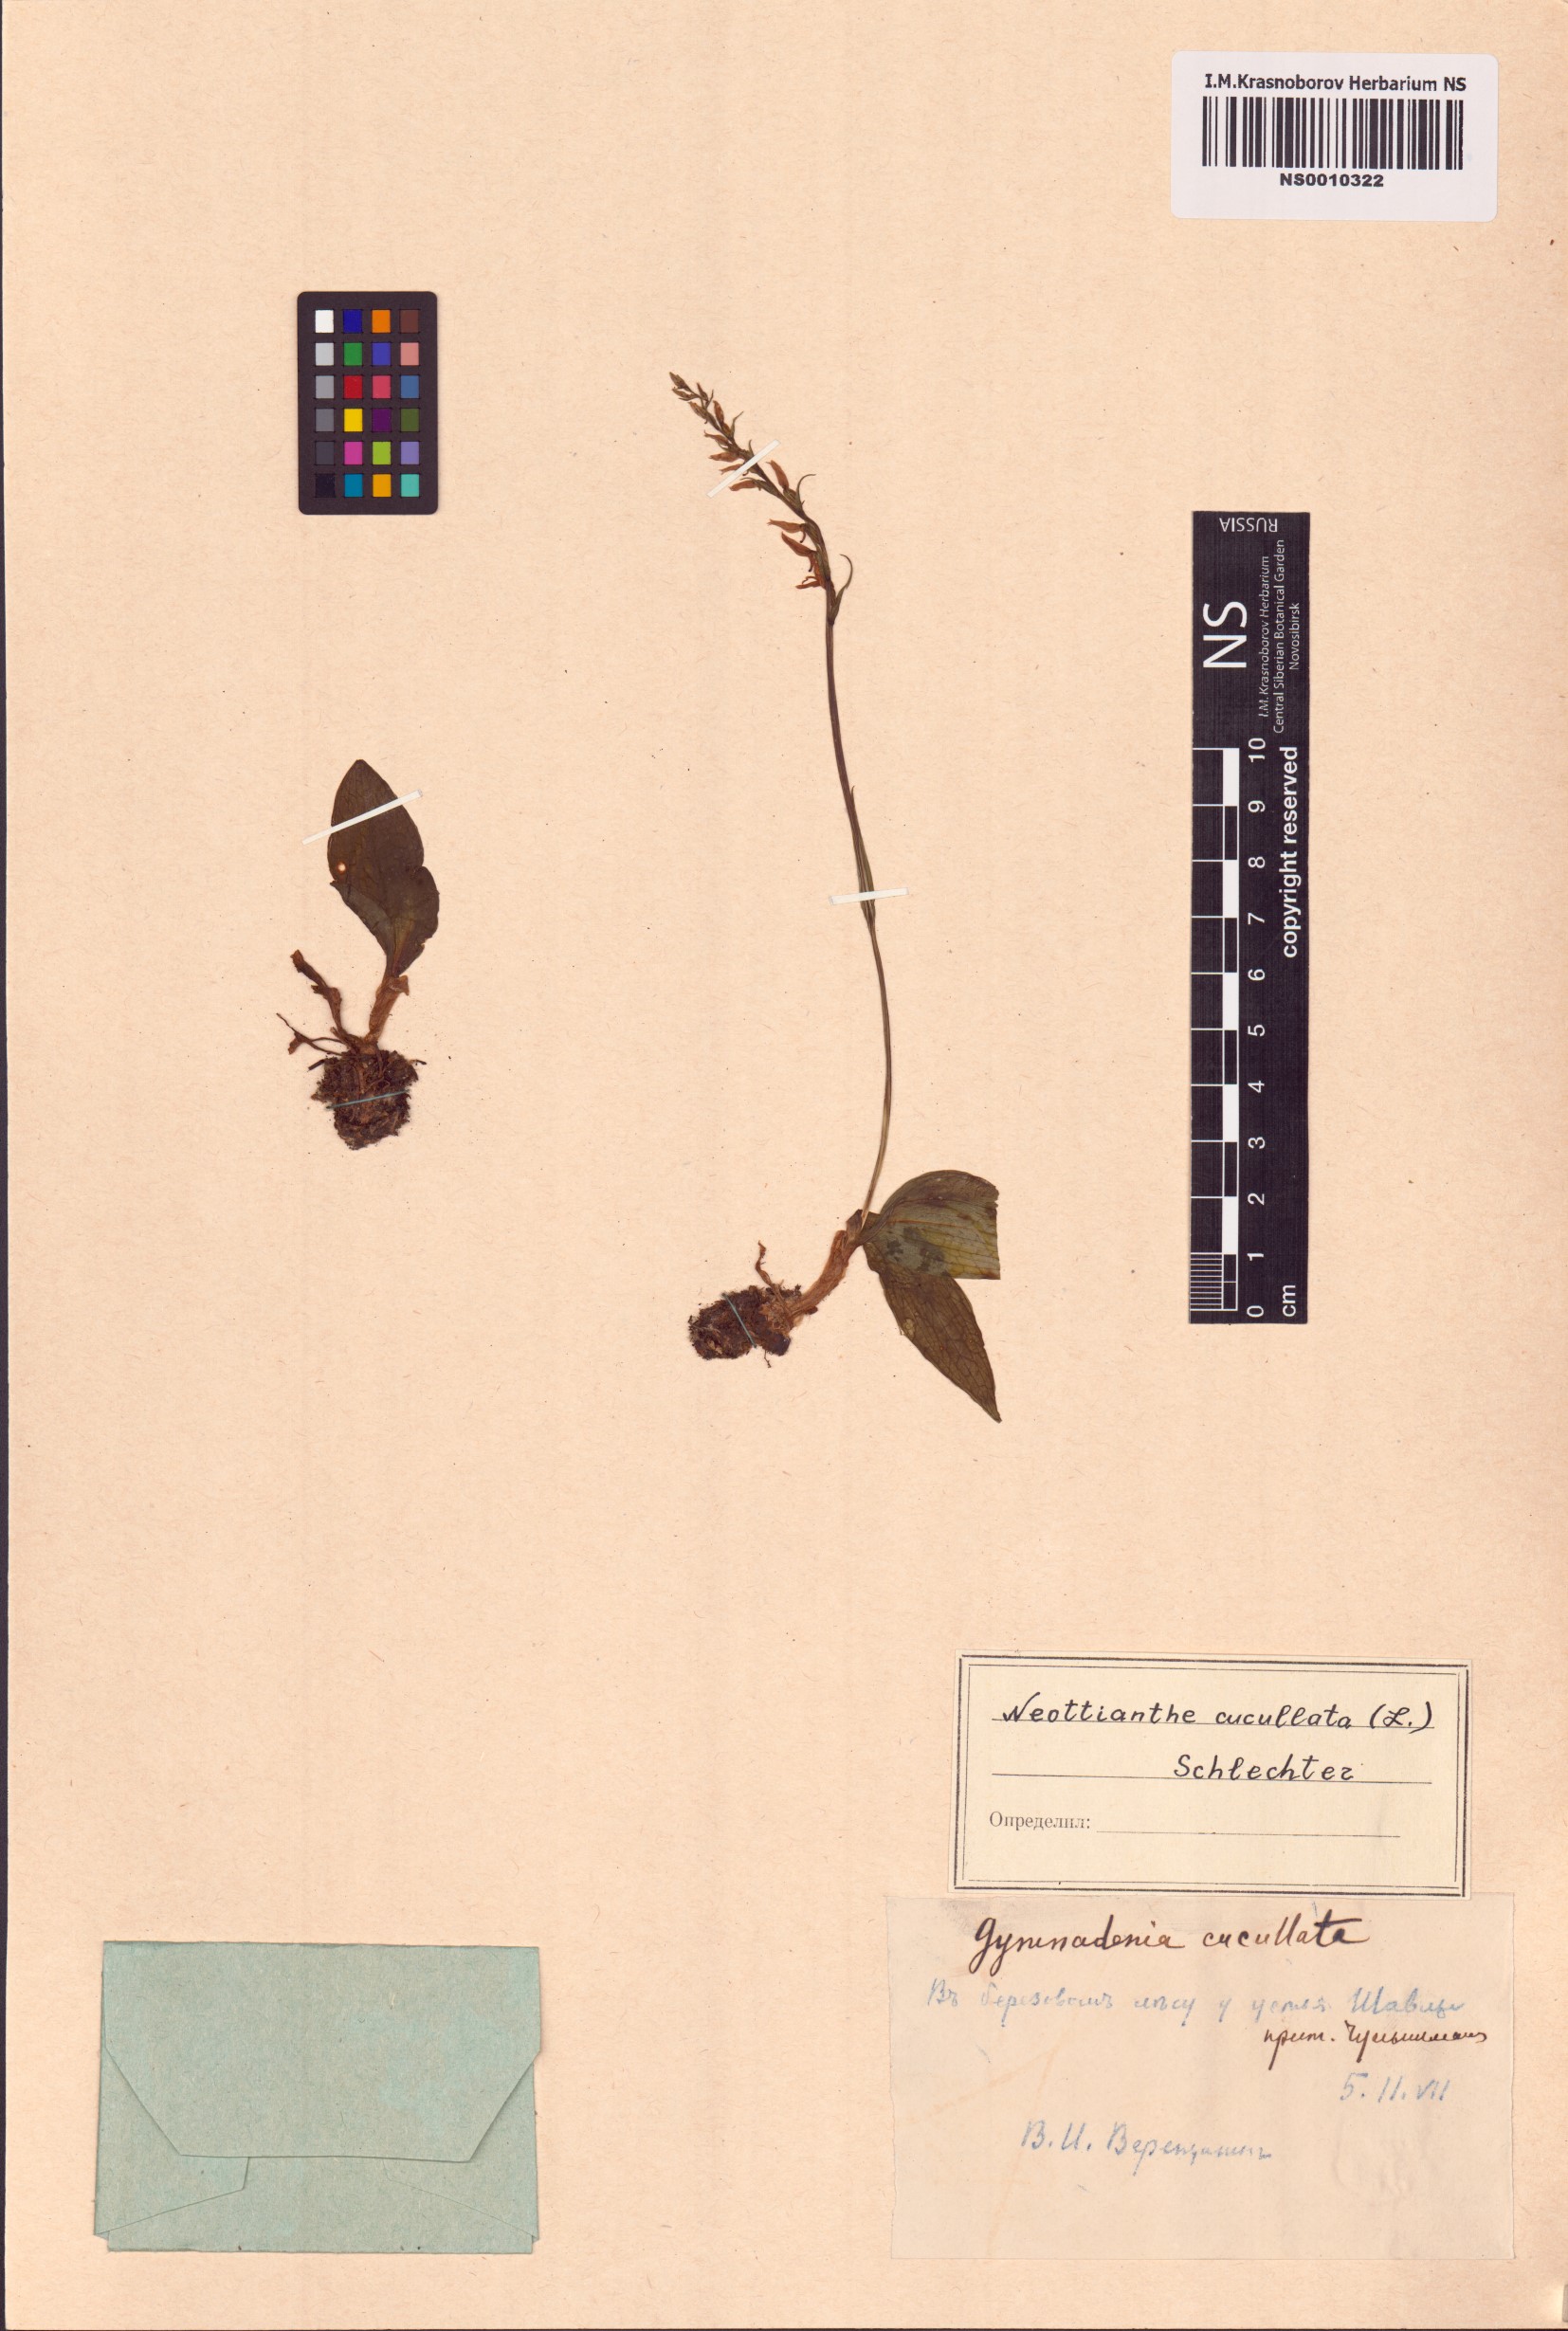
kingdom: Plantae
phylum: Tracheophyta
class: Liliopsida
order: Asparagales
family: Orchidaceae
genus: Hemipilia
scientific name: Hemipilia cucullata
